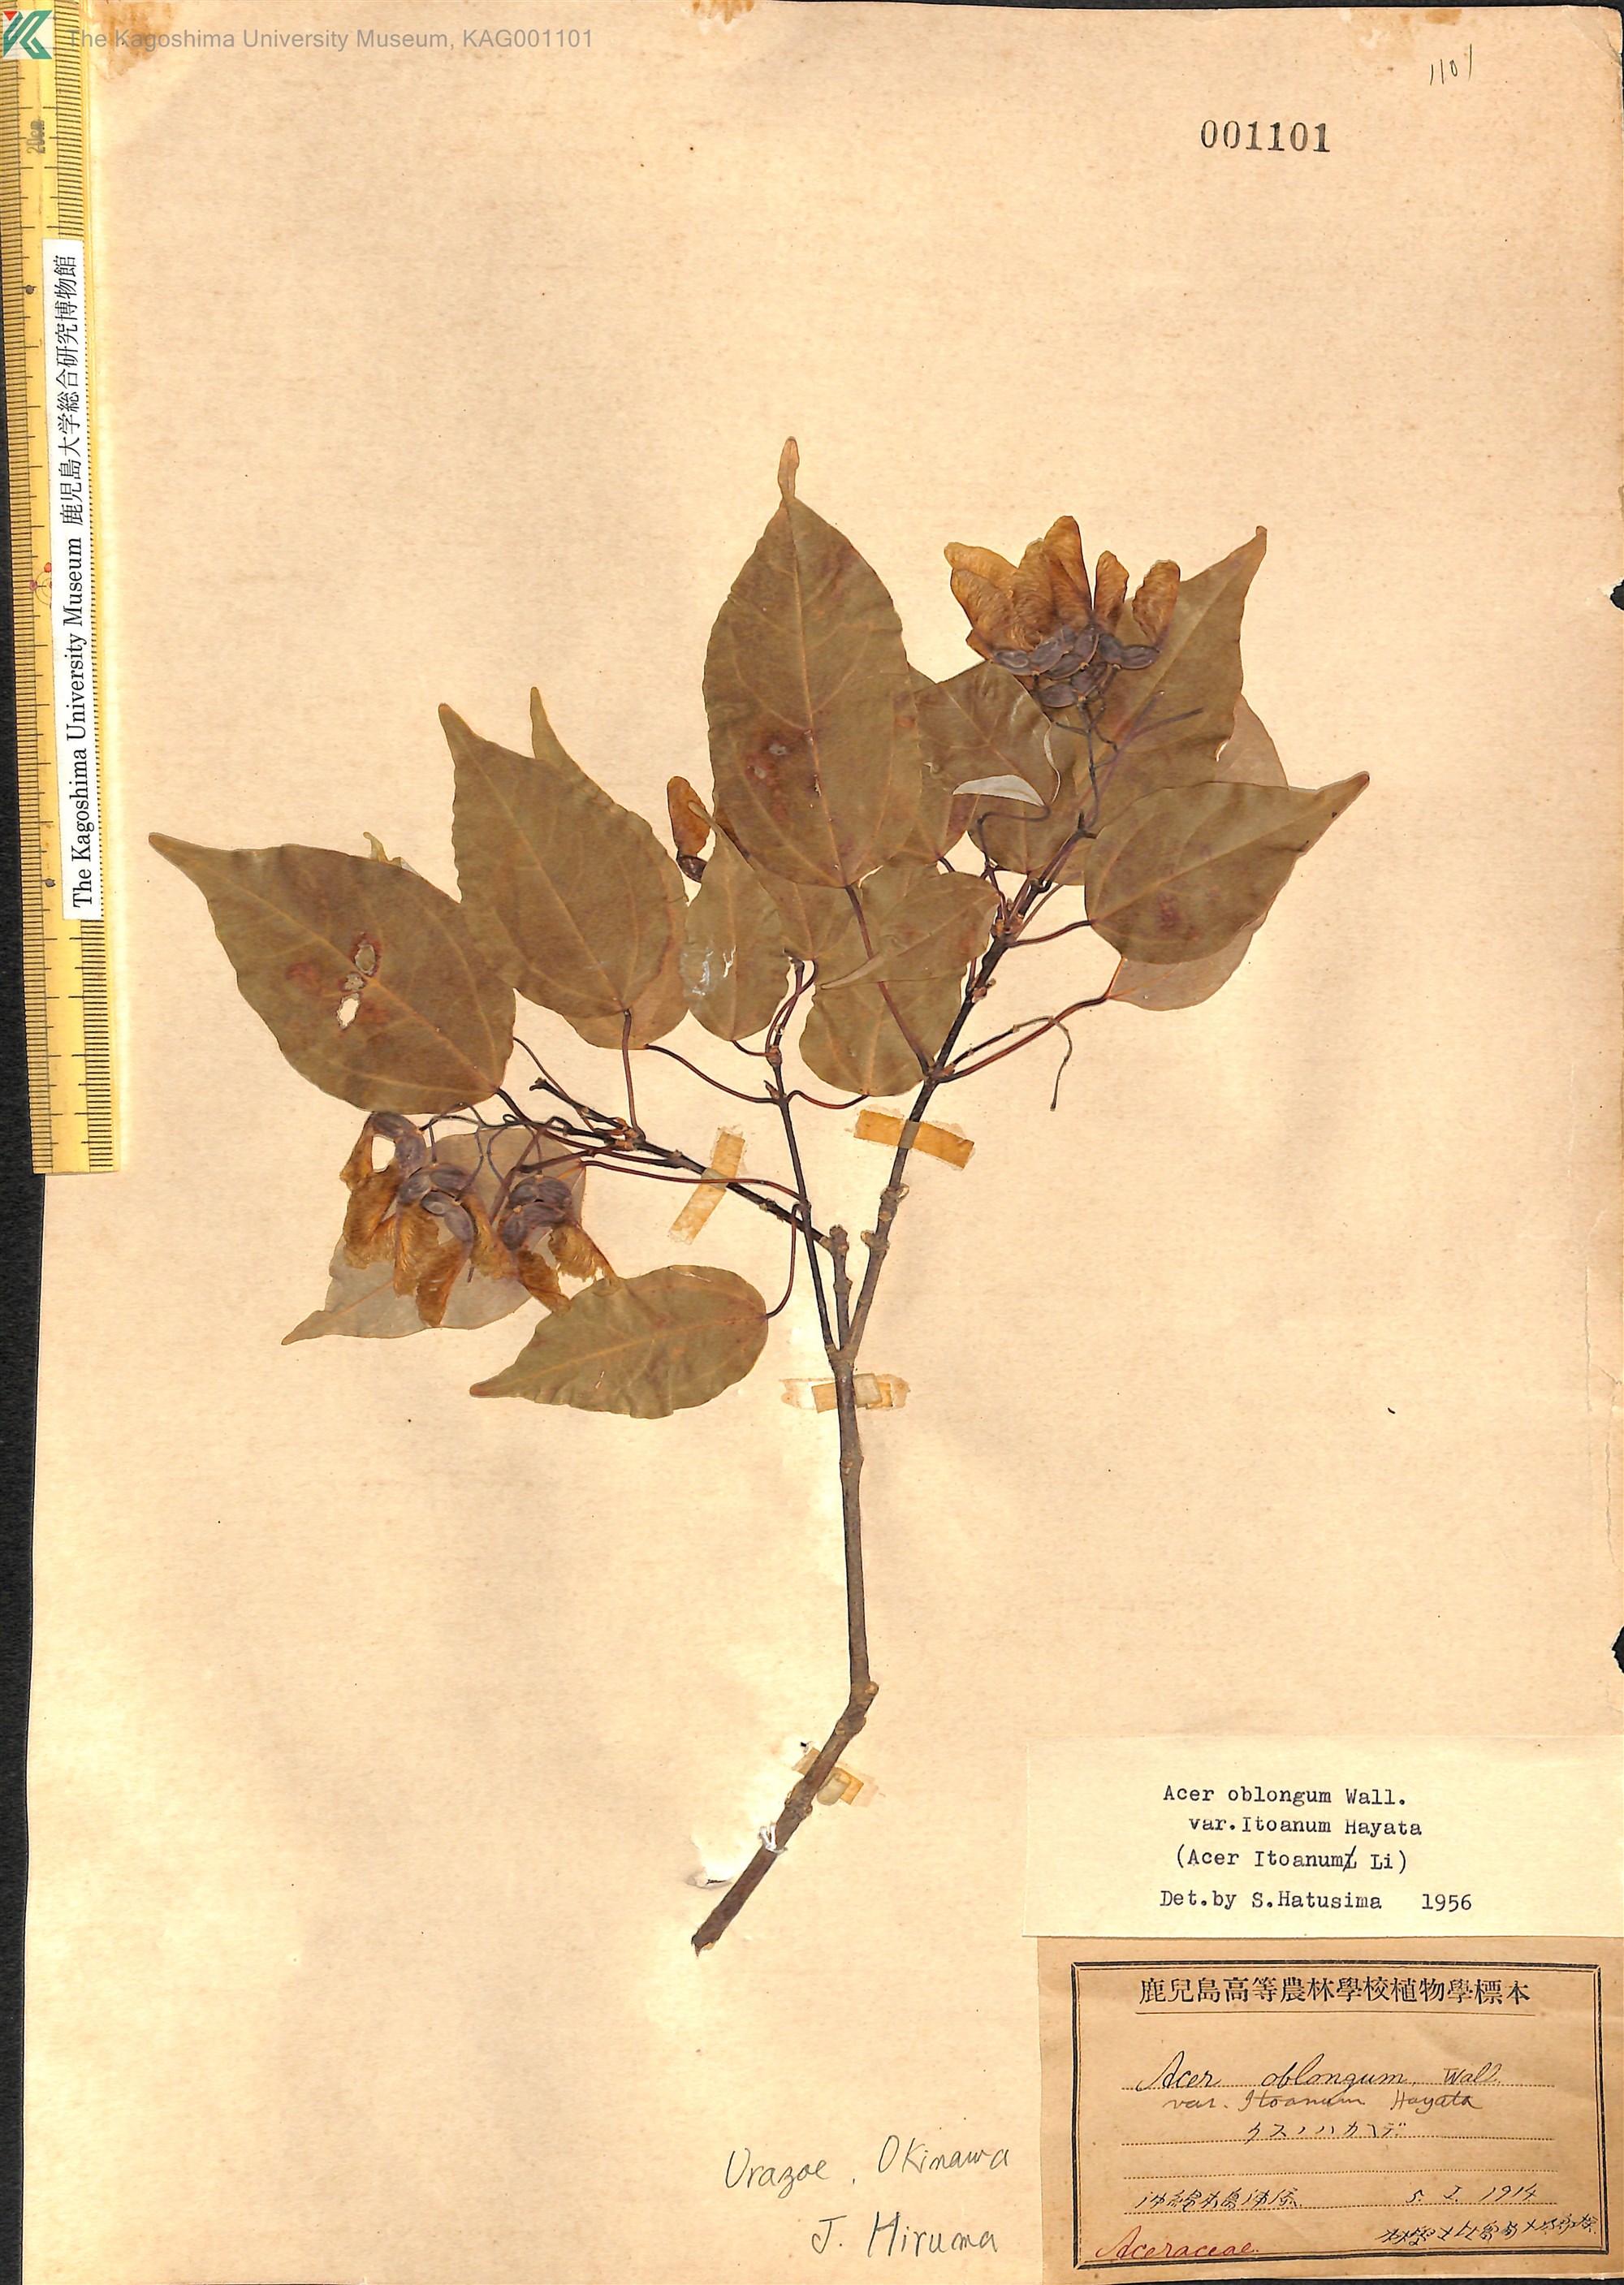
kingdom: Plantae
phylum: Tracheophyta
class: Magnoliopsida
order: Sapindales
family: Sapindaceae
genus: Acer
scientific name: Acer oblongum
